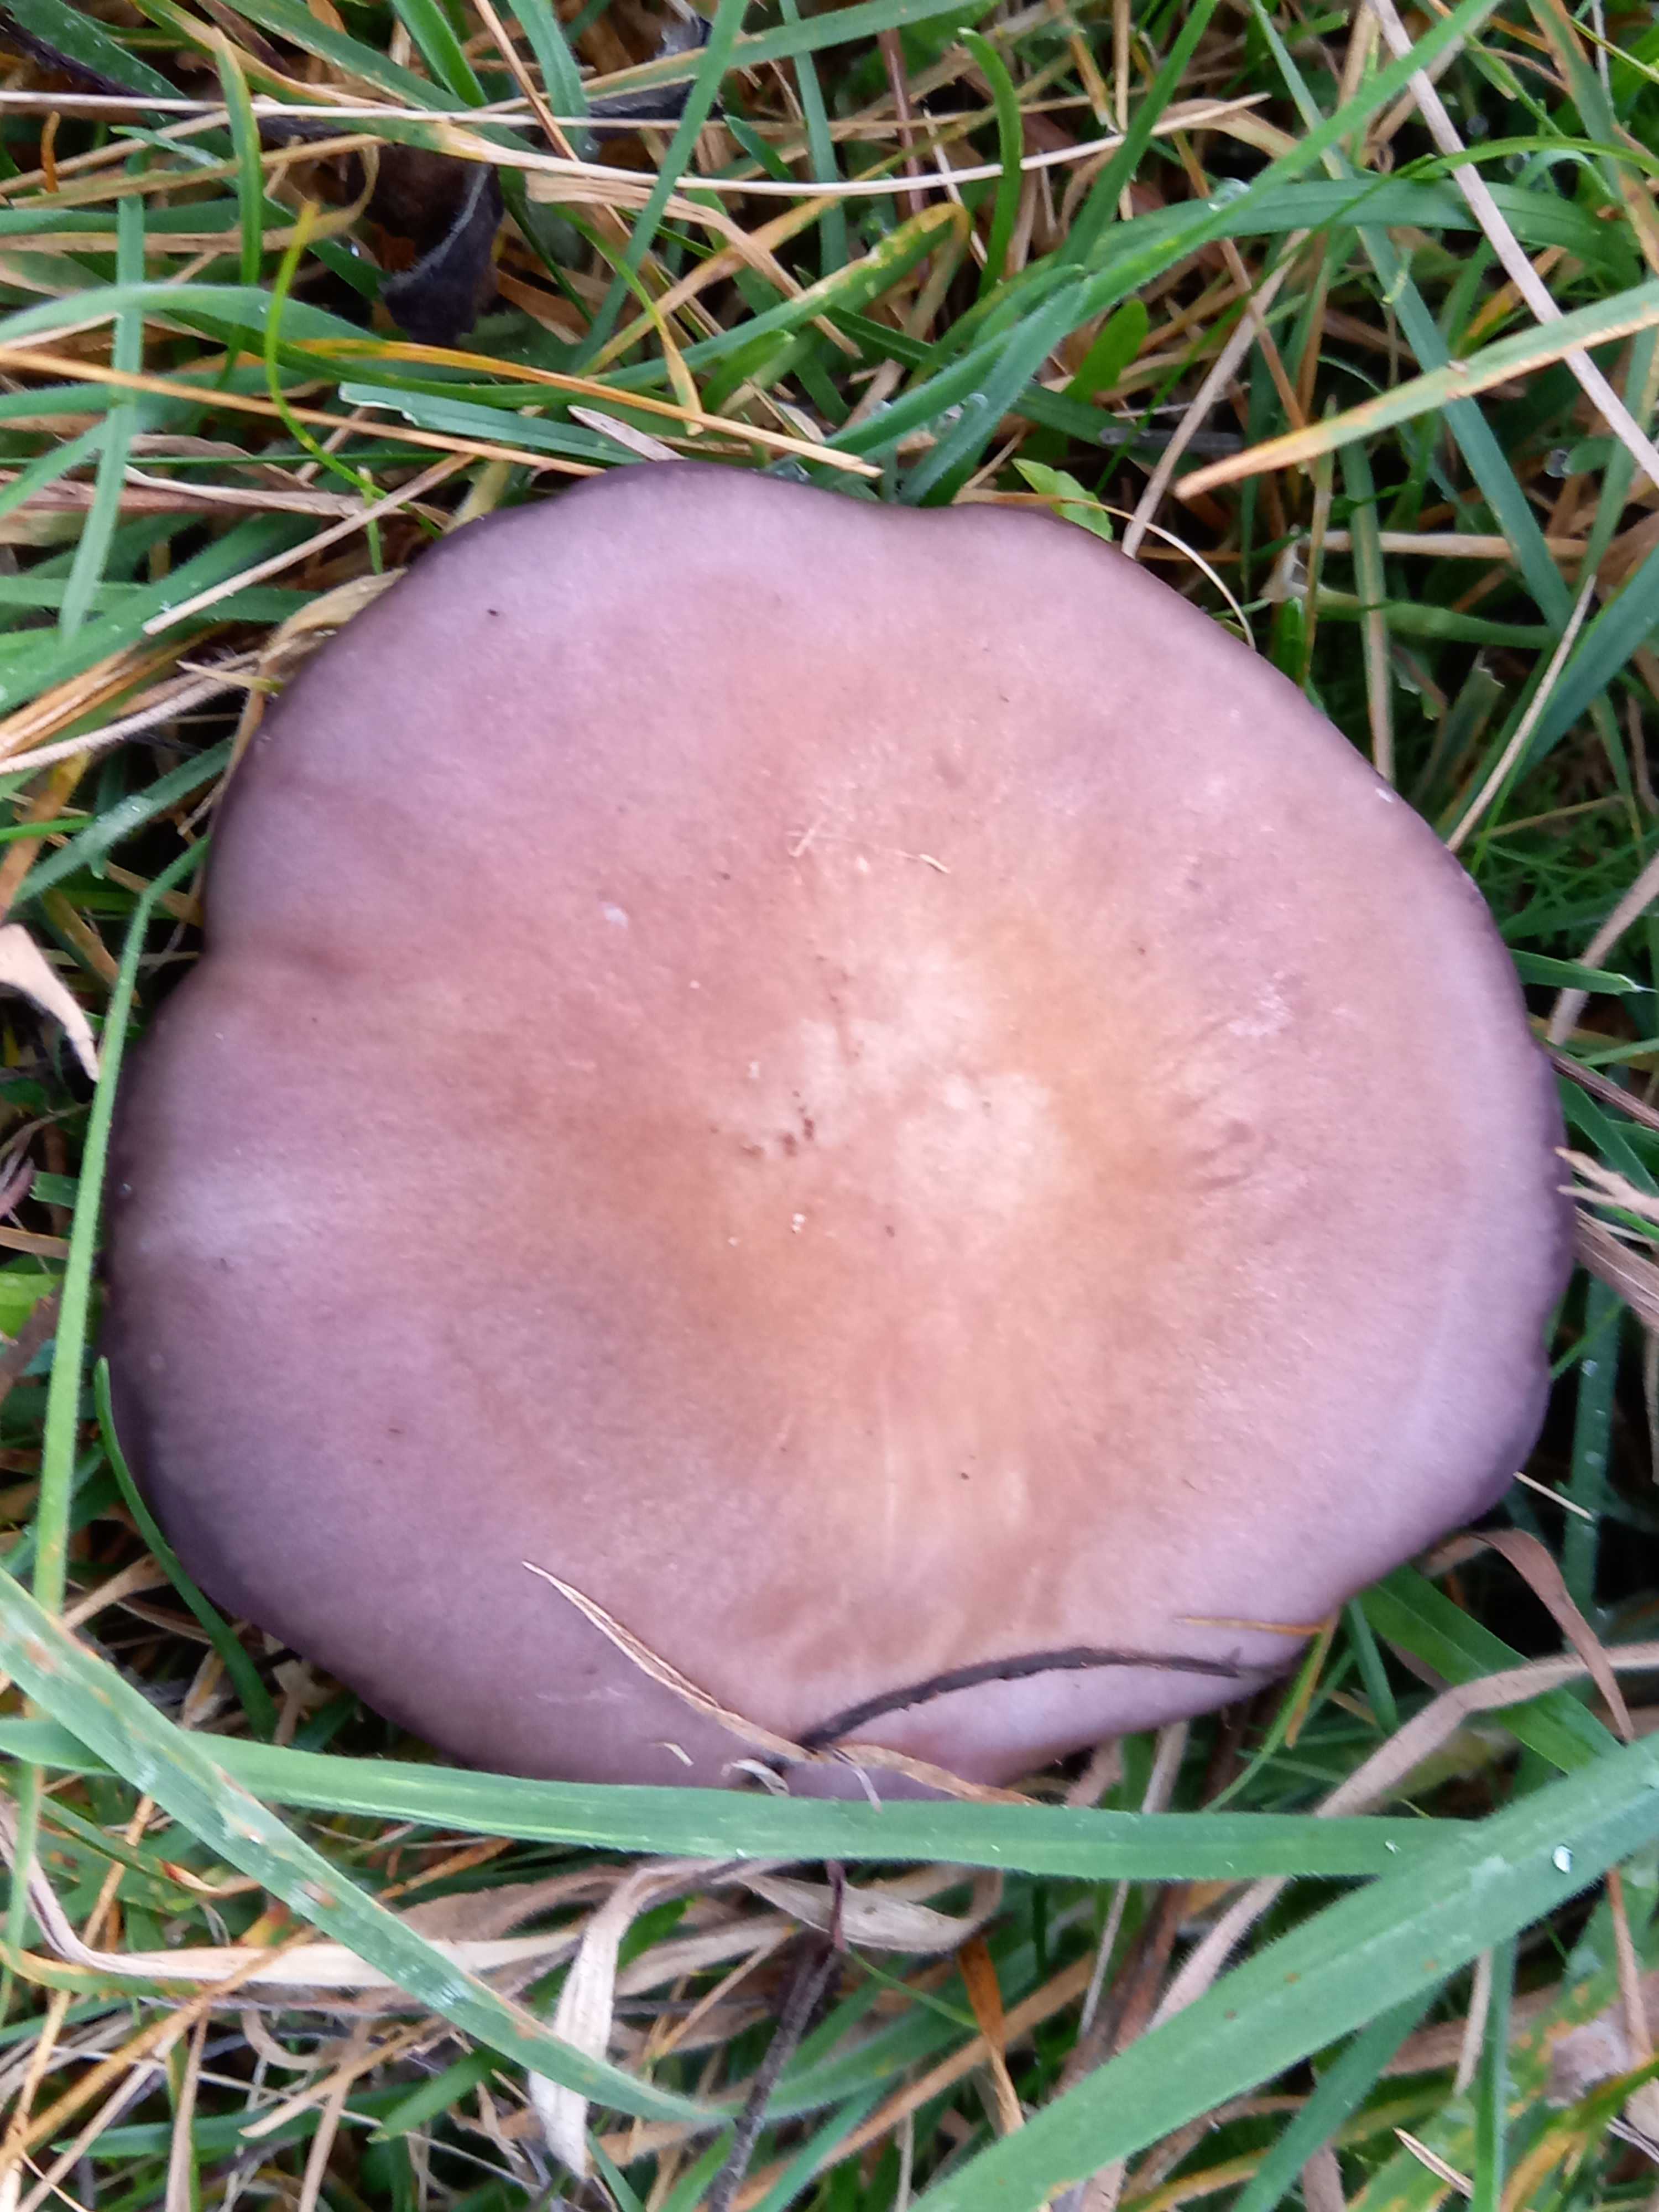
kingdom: Fungi
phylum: Basidiomycota
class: Agaricomycetes
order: Agaricales
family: Tricholomataceae
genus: Lepista
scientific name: Lepista lilacea
